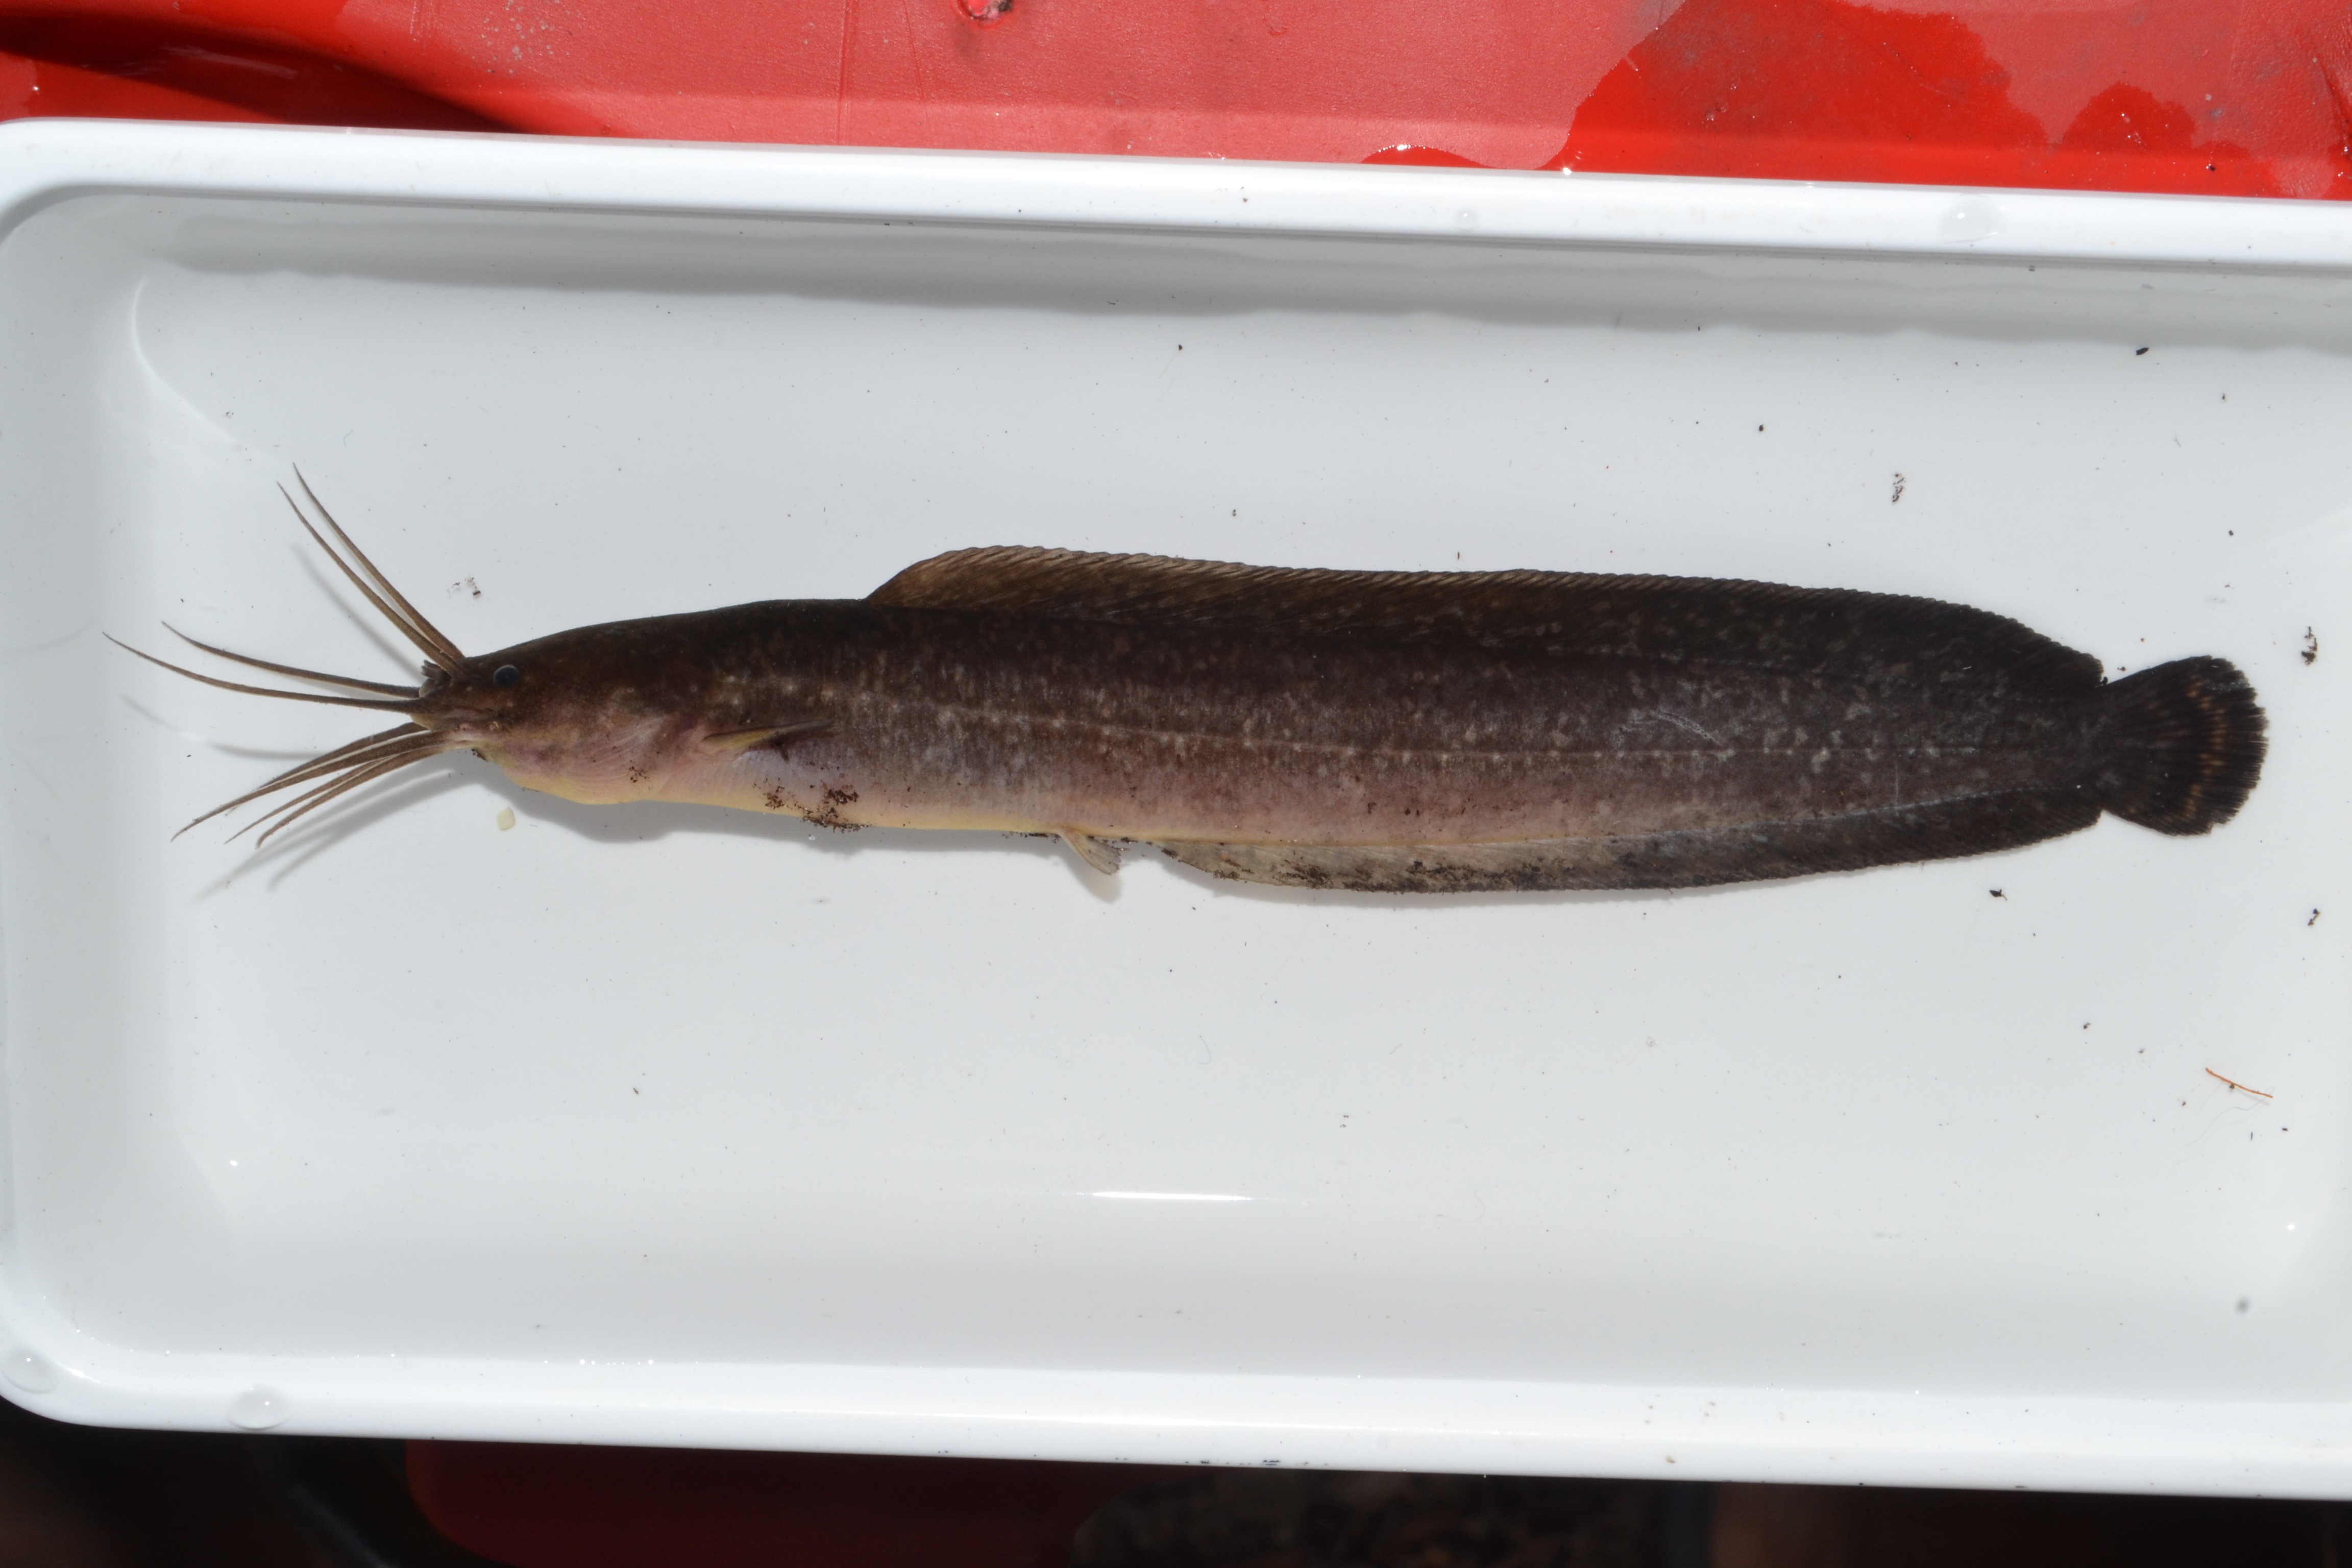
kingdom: Animalia
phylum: Chordata
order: Siluriformes
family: Clariidae
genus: Clarias
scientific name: Clarias theodorae
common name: Snake catfish
